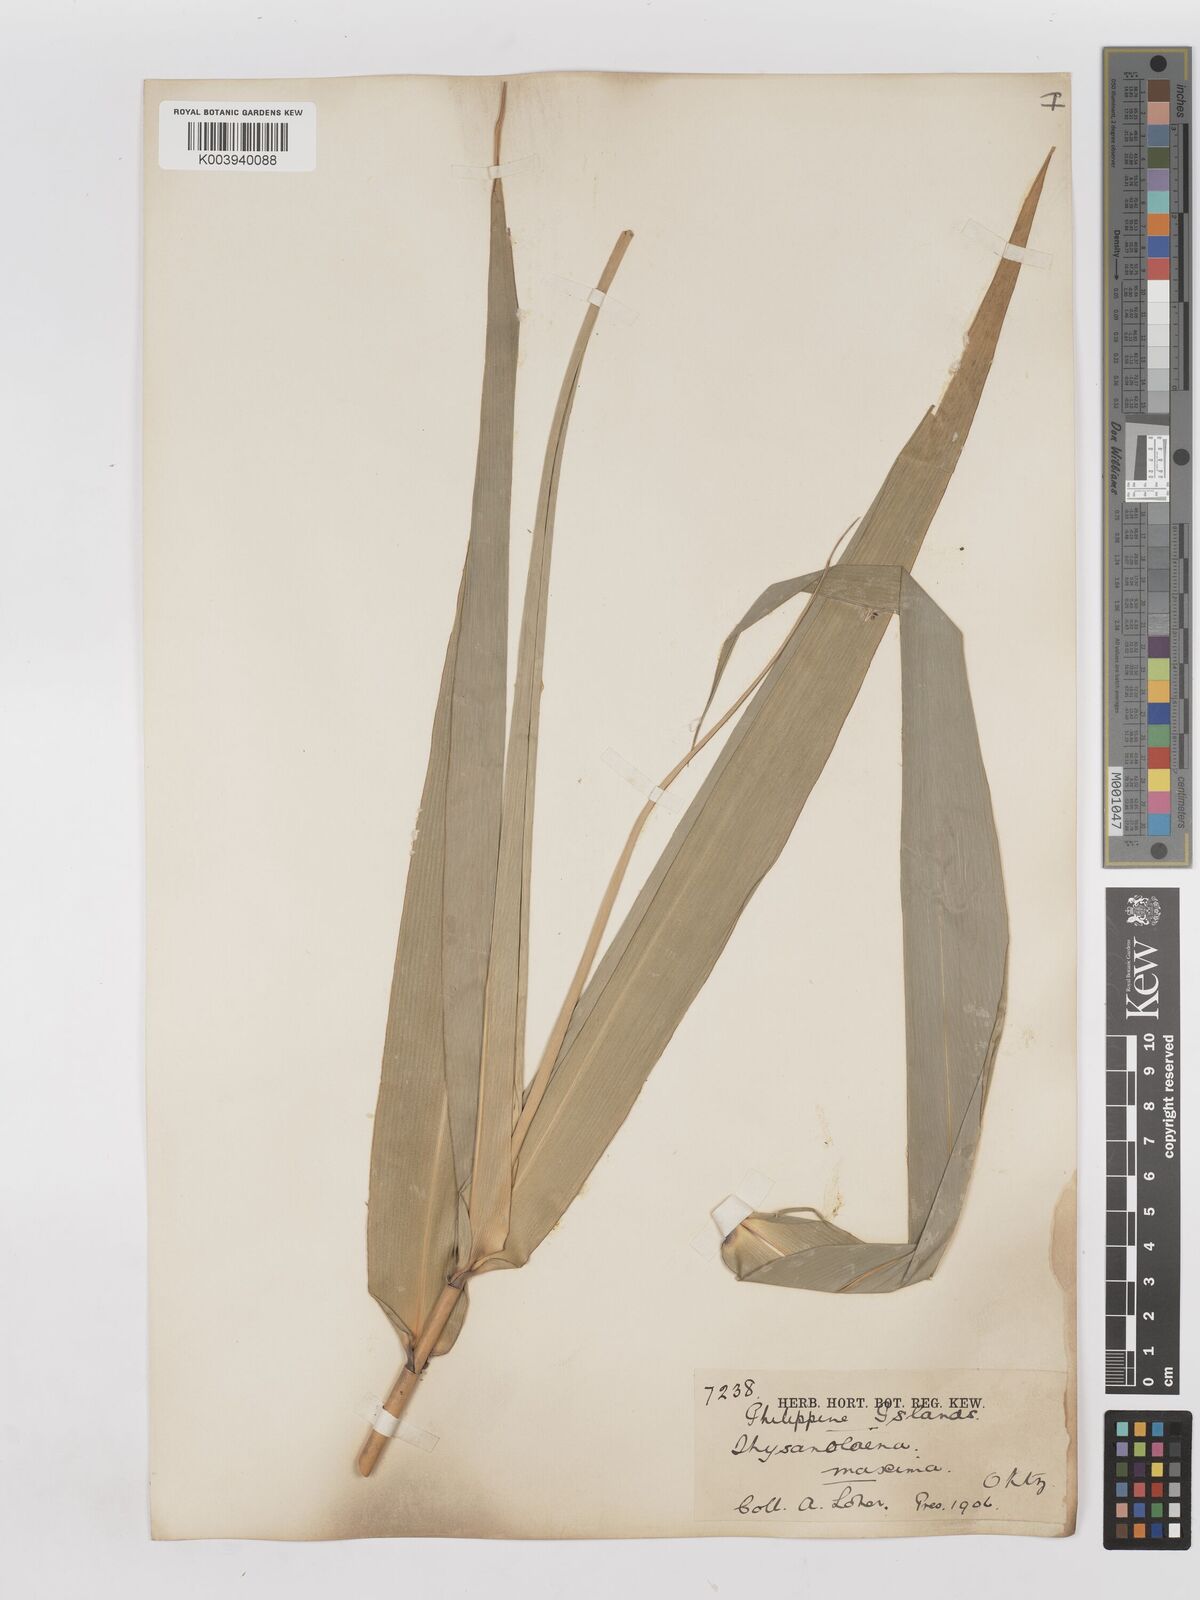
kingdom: Plantae
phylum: Tracheophyta
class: Liliopsida
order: Poales
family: Poaceae
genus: Thysanolaena
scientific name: Thysanolaena latifolia
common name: Tiger grass
